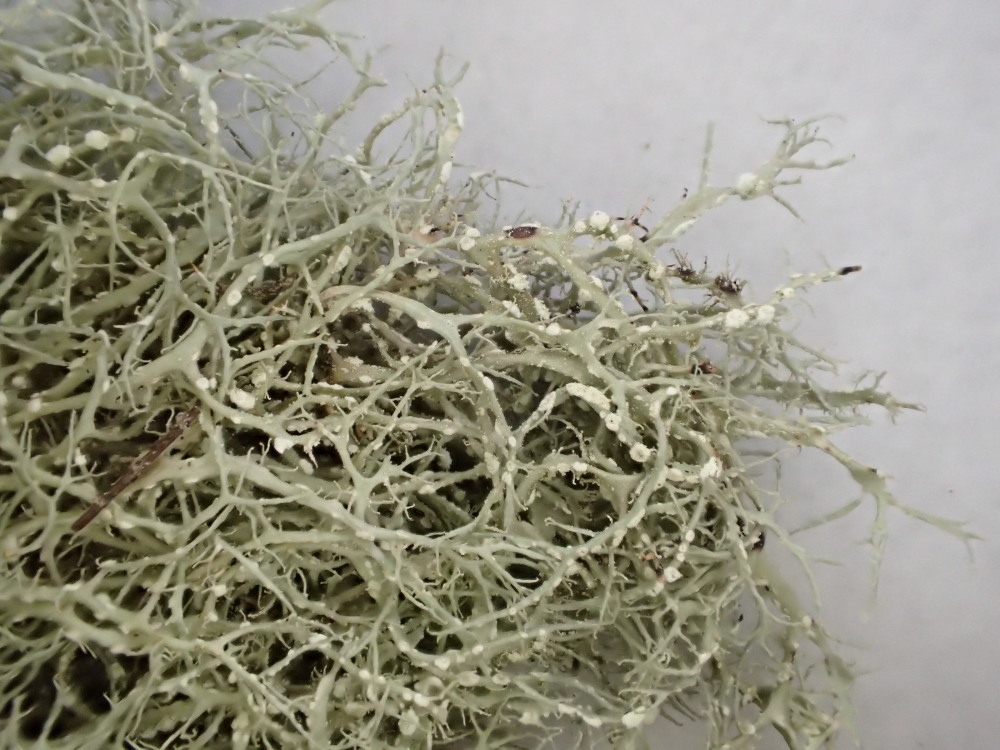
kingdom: Fungi
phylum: Ascomycota
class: Lecanoromycetes
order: Lecanorales
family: Ramalinaceae
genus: Ramalina
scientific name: Ramalina farinacea
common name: melet grenlav
